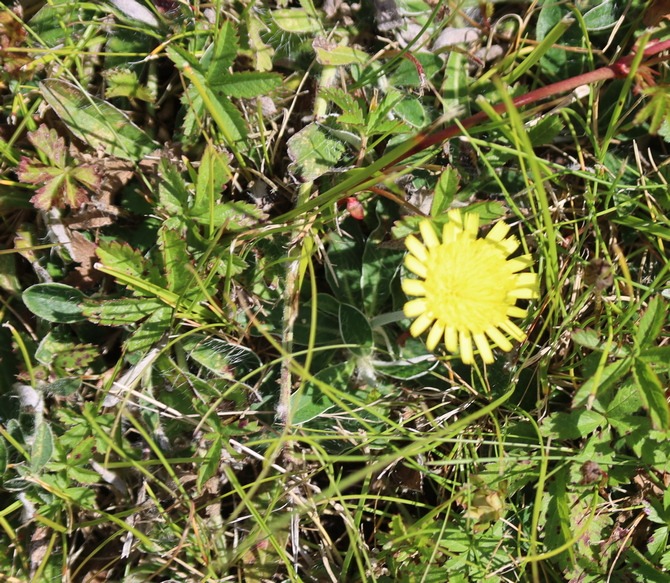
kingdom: Plantae
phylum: Tracheophyta
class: Magnoliopsida
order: Asterales
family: Asteraceae
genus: Pilosella
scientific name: Pilosella officinarum
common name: Håret høgeurt
